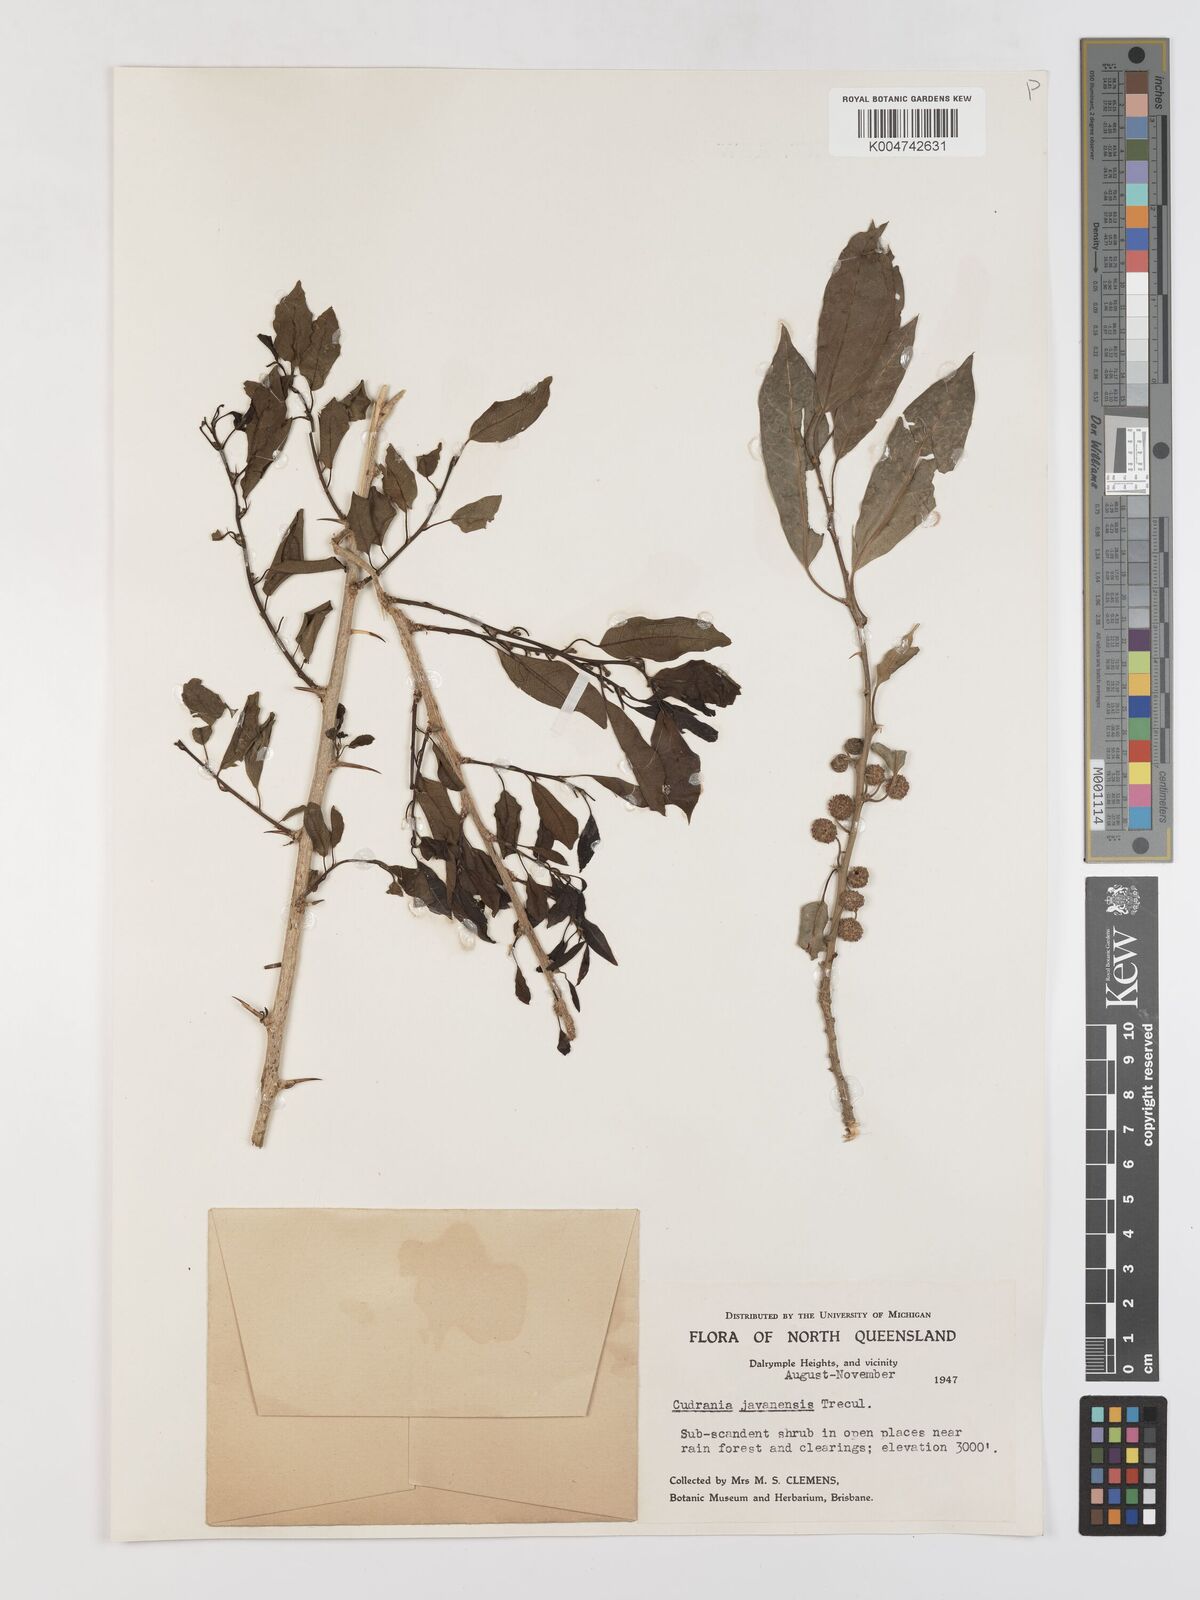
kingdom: Plantae
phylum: Tracheophyta
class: Magnoliopsida
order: Rosales
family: Moraceae
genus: Maclura
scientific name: Maclura cochinchinensis
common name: Cockspurthorn
